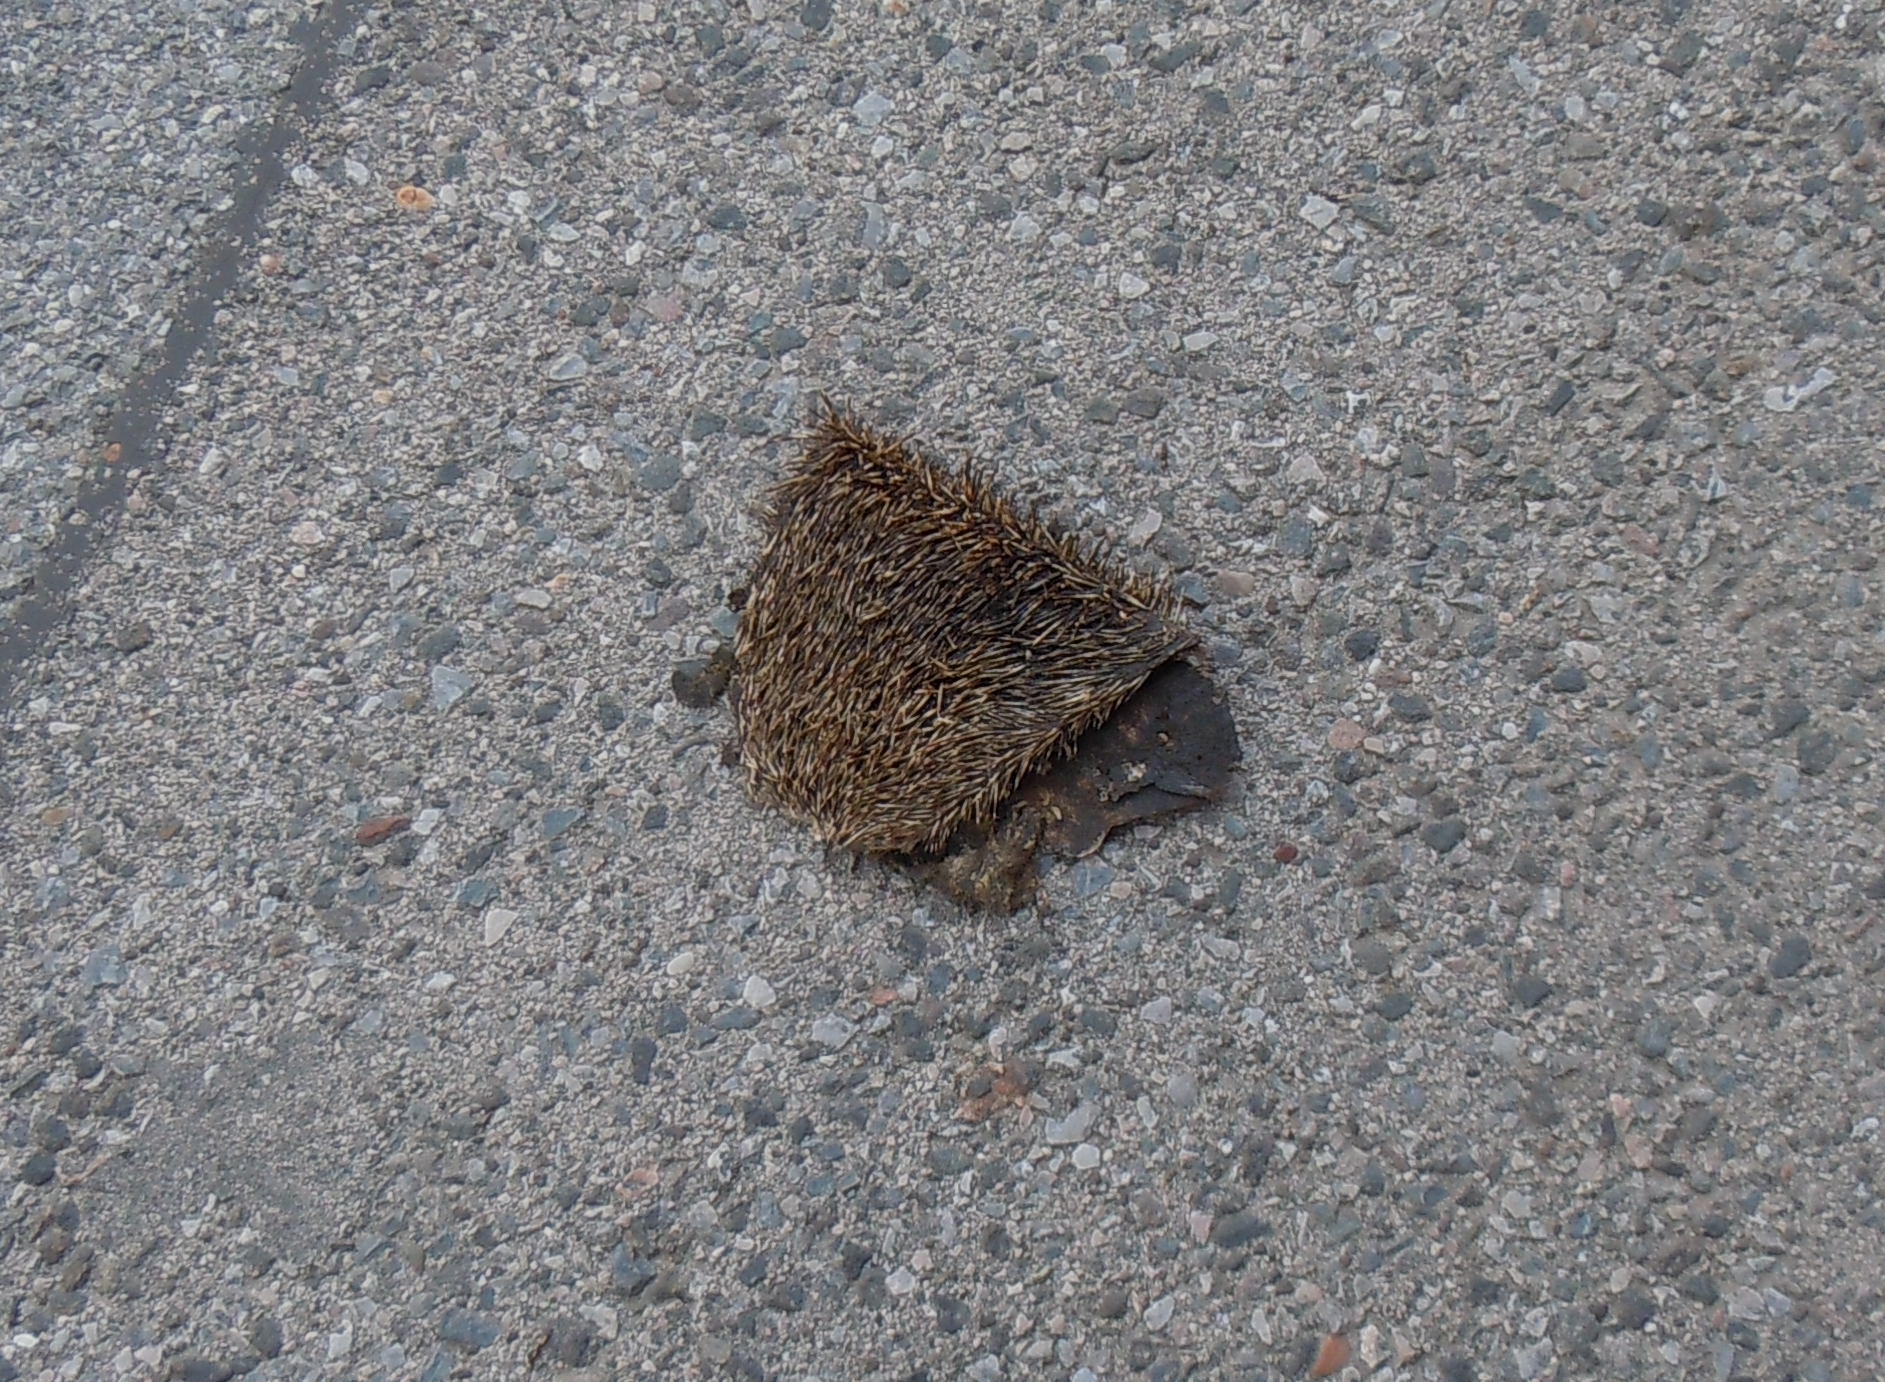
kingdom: Animalia
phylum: Chordata
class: Mammalia
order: Erinaceomorpha
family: Erinaceidae
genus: Erinaceus
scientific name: Erinaceus
